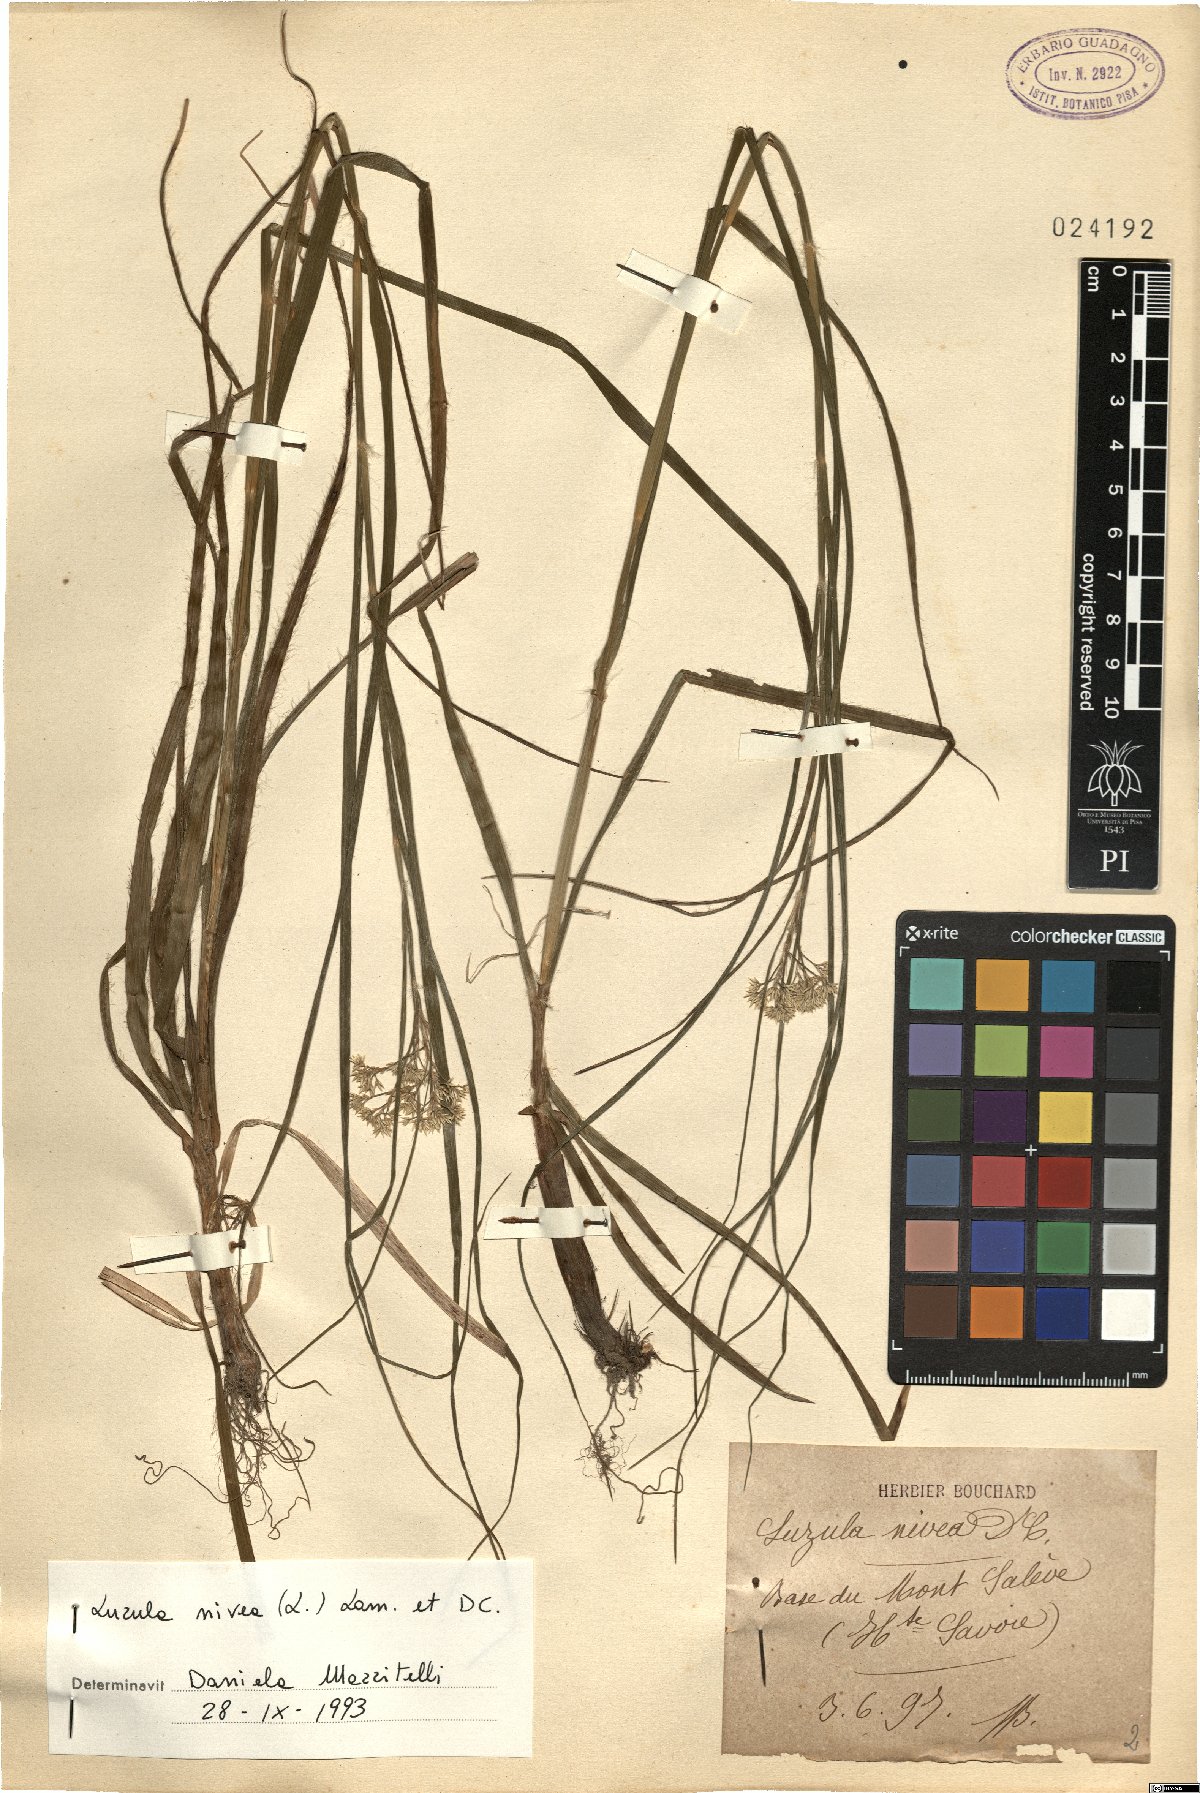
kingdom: Plantae
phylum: Tracheophyta
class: Liliopsida
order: Poales
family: Juncaceae
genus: Luzula
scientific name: Luzula nivea
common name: Snow-white wood-rush
